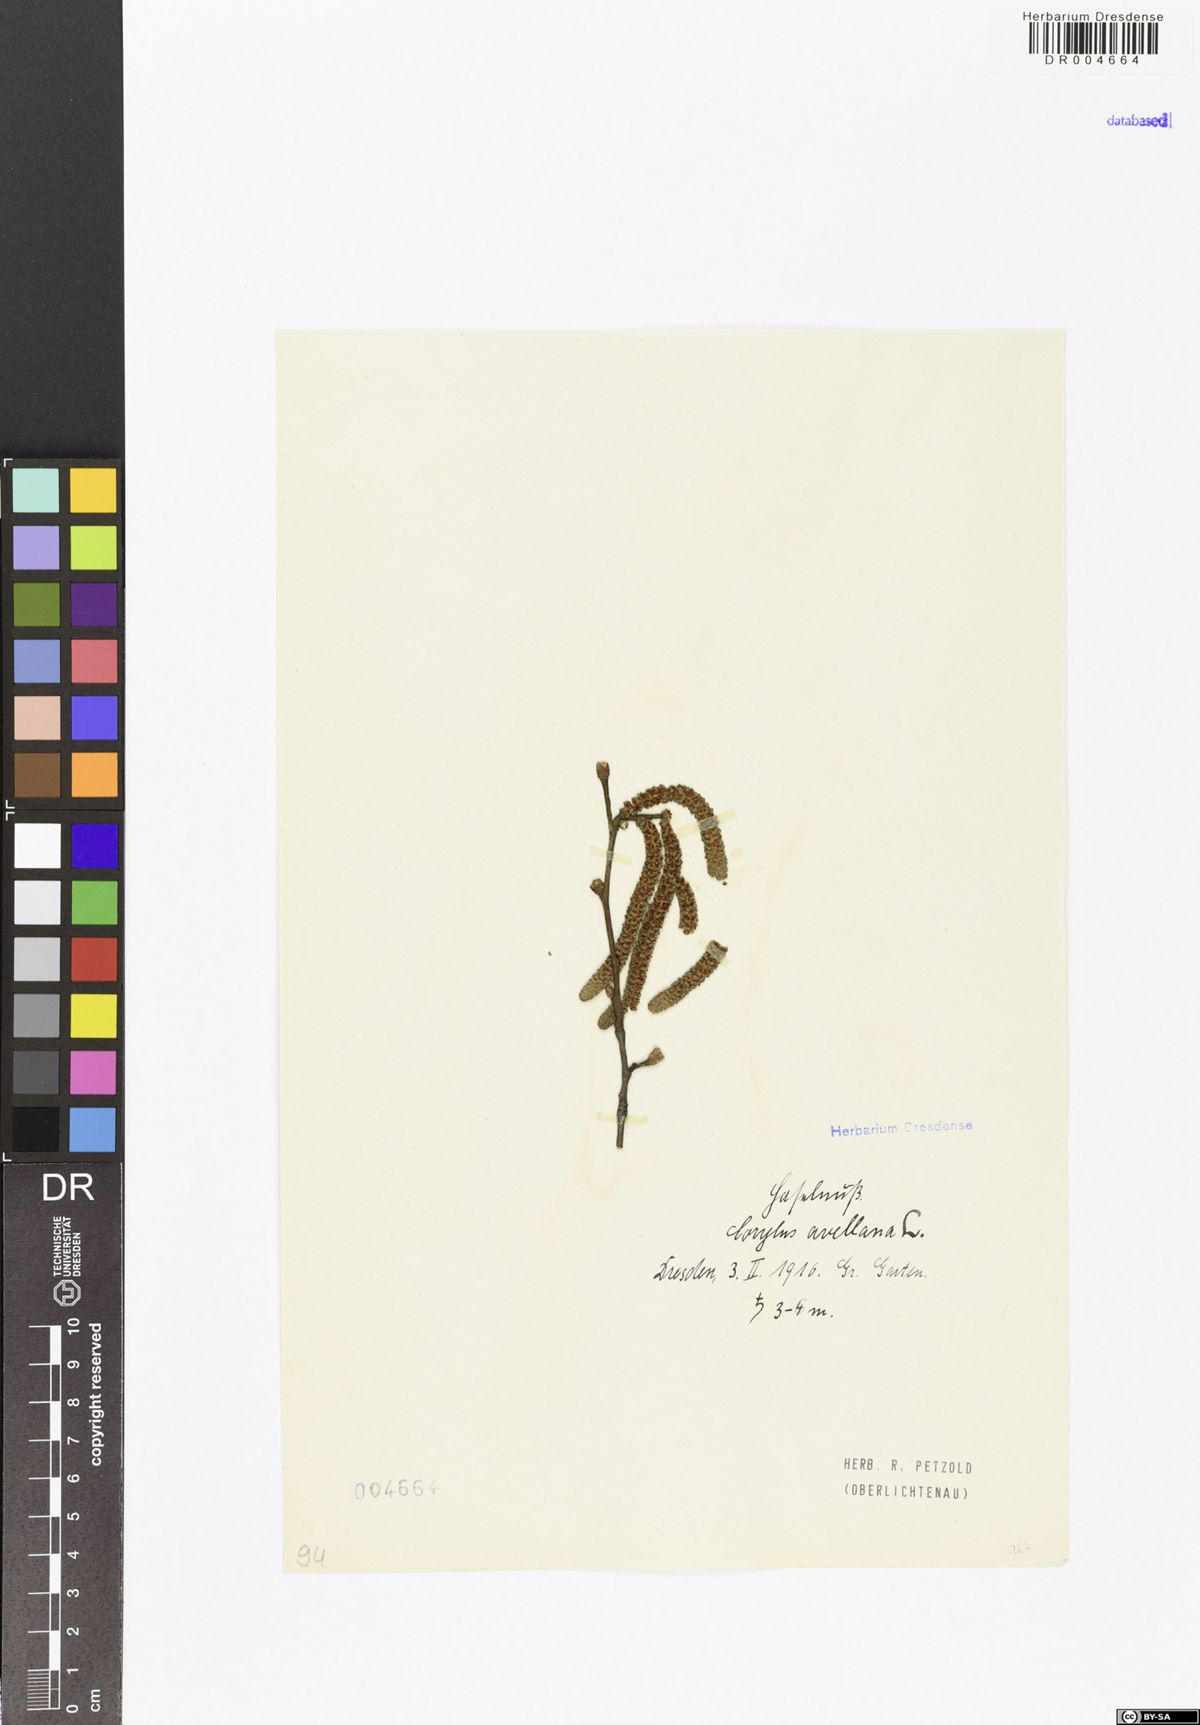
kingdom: Plantae
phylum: Tracheophyta
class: Magnoliopsida
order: Fagales
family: Betulaceae
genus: Corylus
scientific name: Corylus avellana
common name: European hazel
